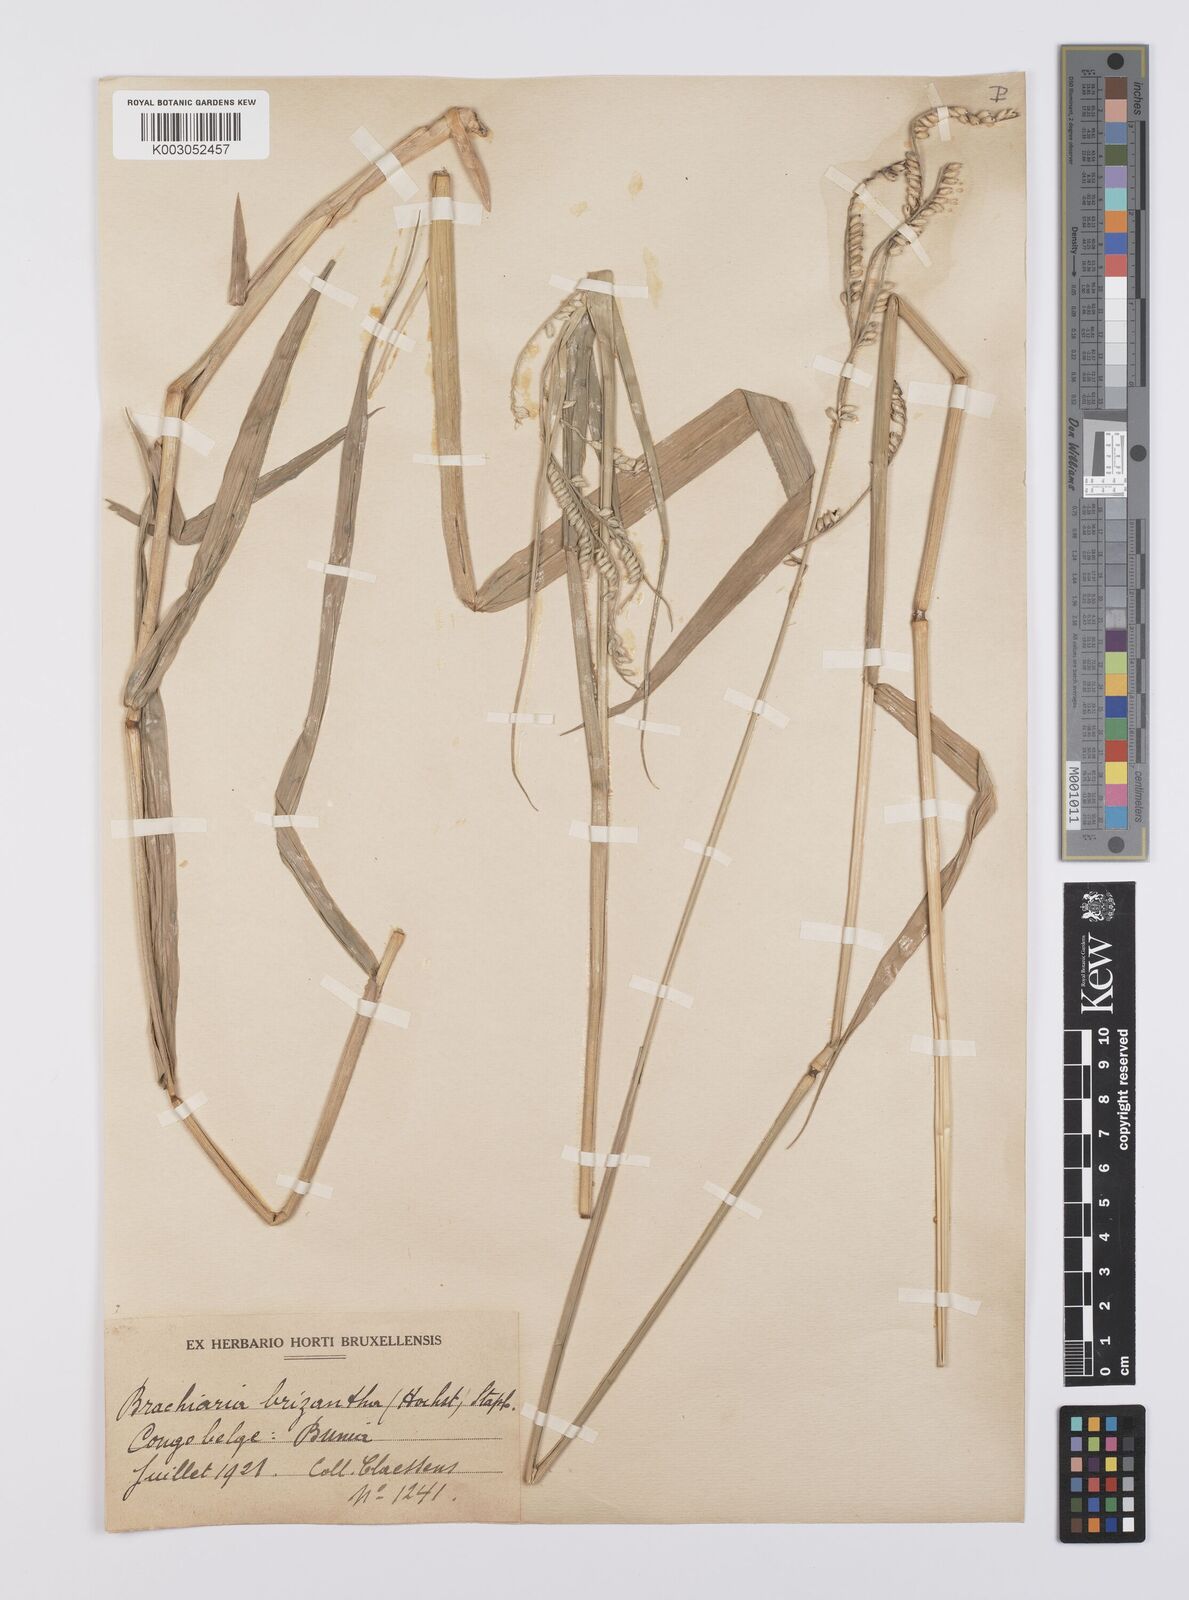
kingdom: Plantae
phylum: Tracheophyta
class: Liliopsida
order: Poales
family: Poaceae
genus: Urochloa
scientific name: Urochloa brizantha
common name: Palisade signalgrass
